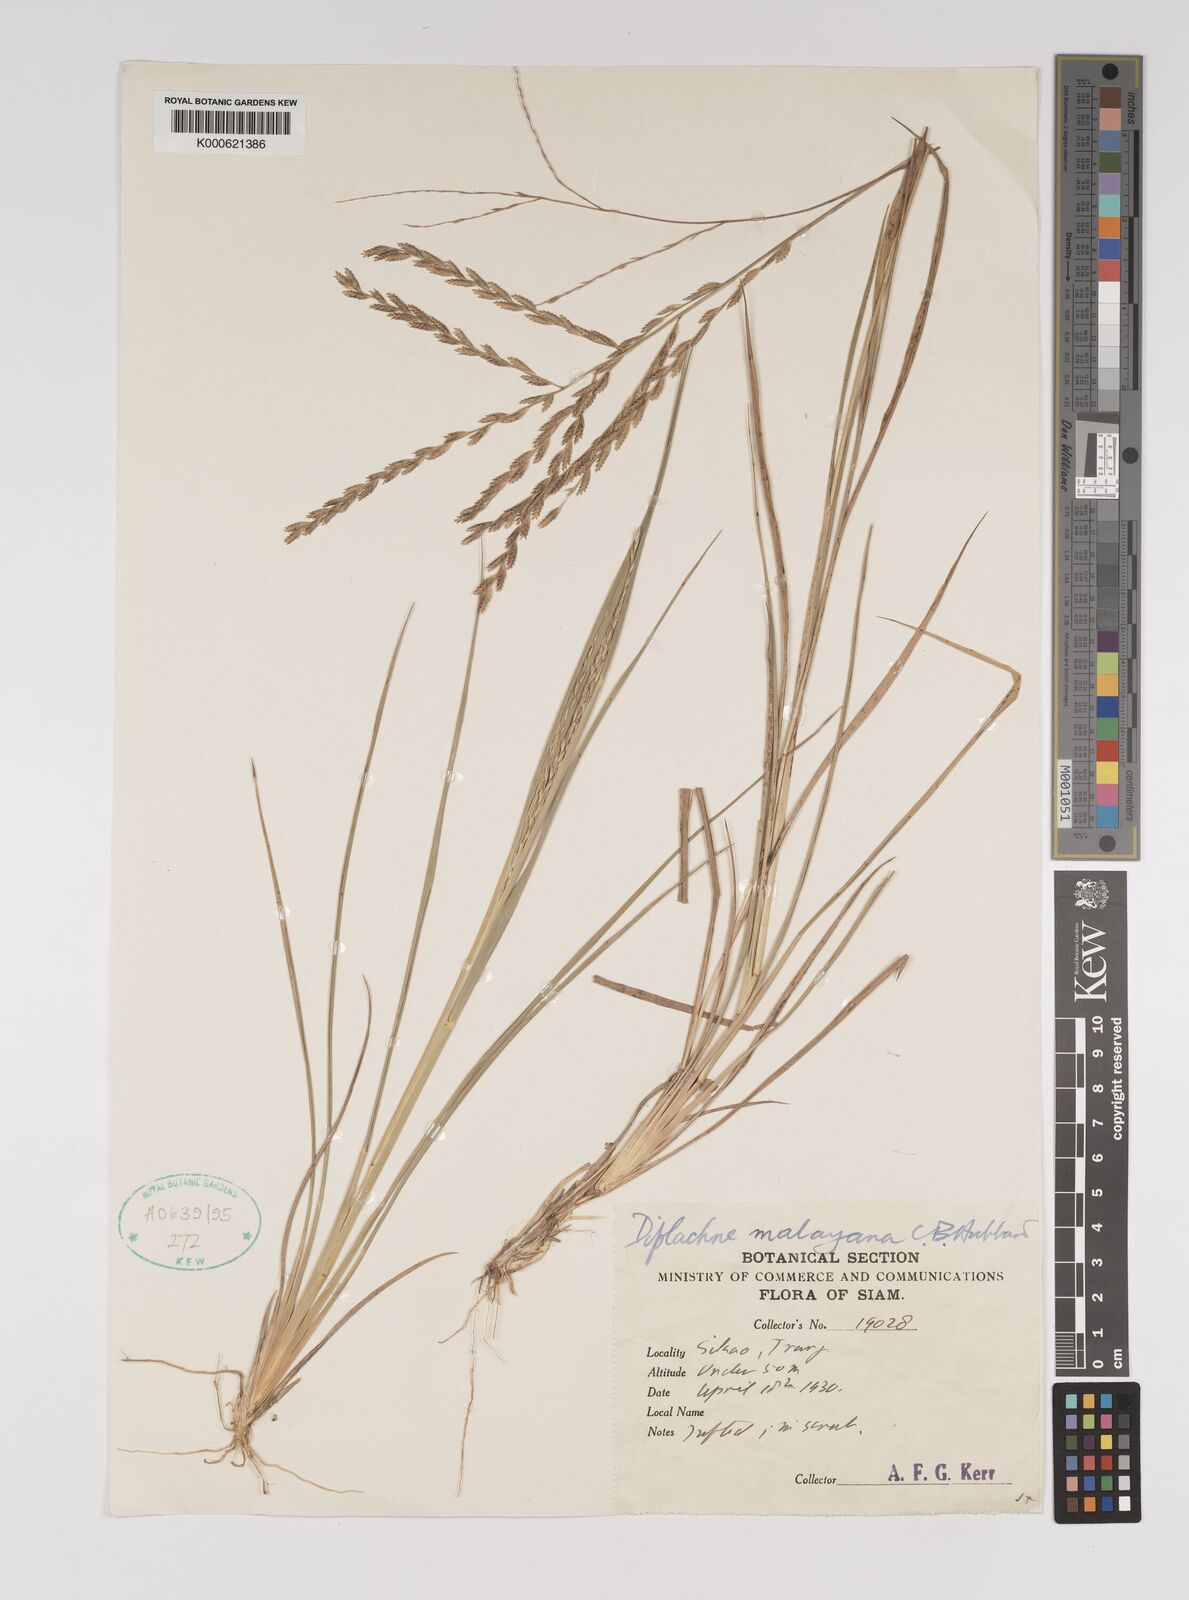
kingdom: Plantae
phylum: Tracheophyta
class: Liliopsida
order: Poales
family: Poaceae
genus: Leptochloa
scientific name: Leptochloa malayana
